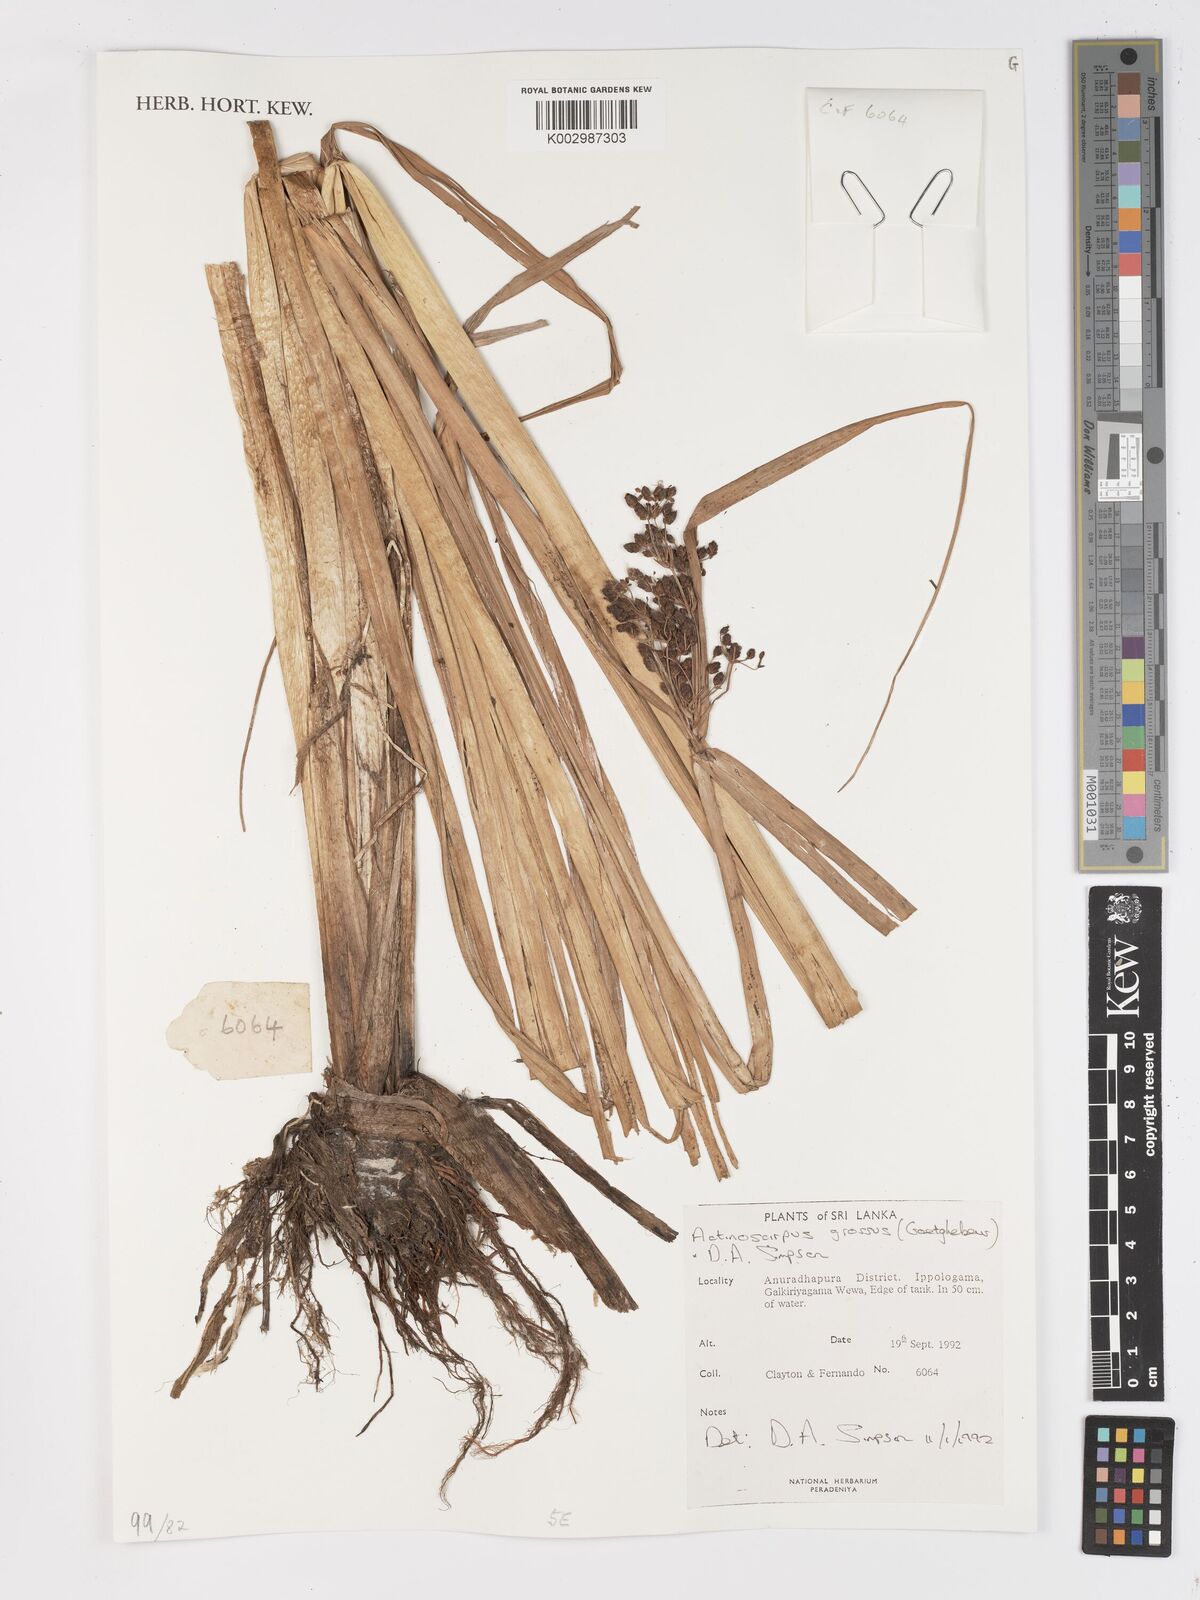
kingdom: Plantae
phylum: Tracheophyta
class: Liliopsida
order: Poales
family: Cyperaceae
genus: Actinoscirpus
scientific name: Actinoscirpus grossus
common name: Giant bur rush
